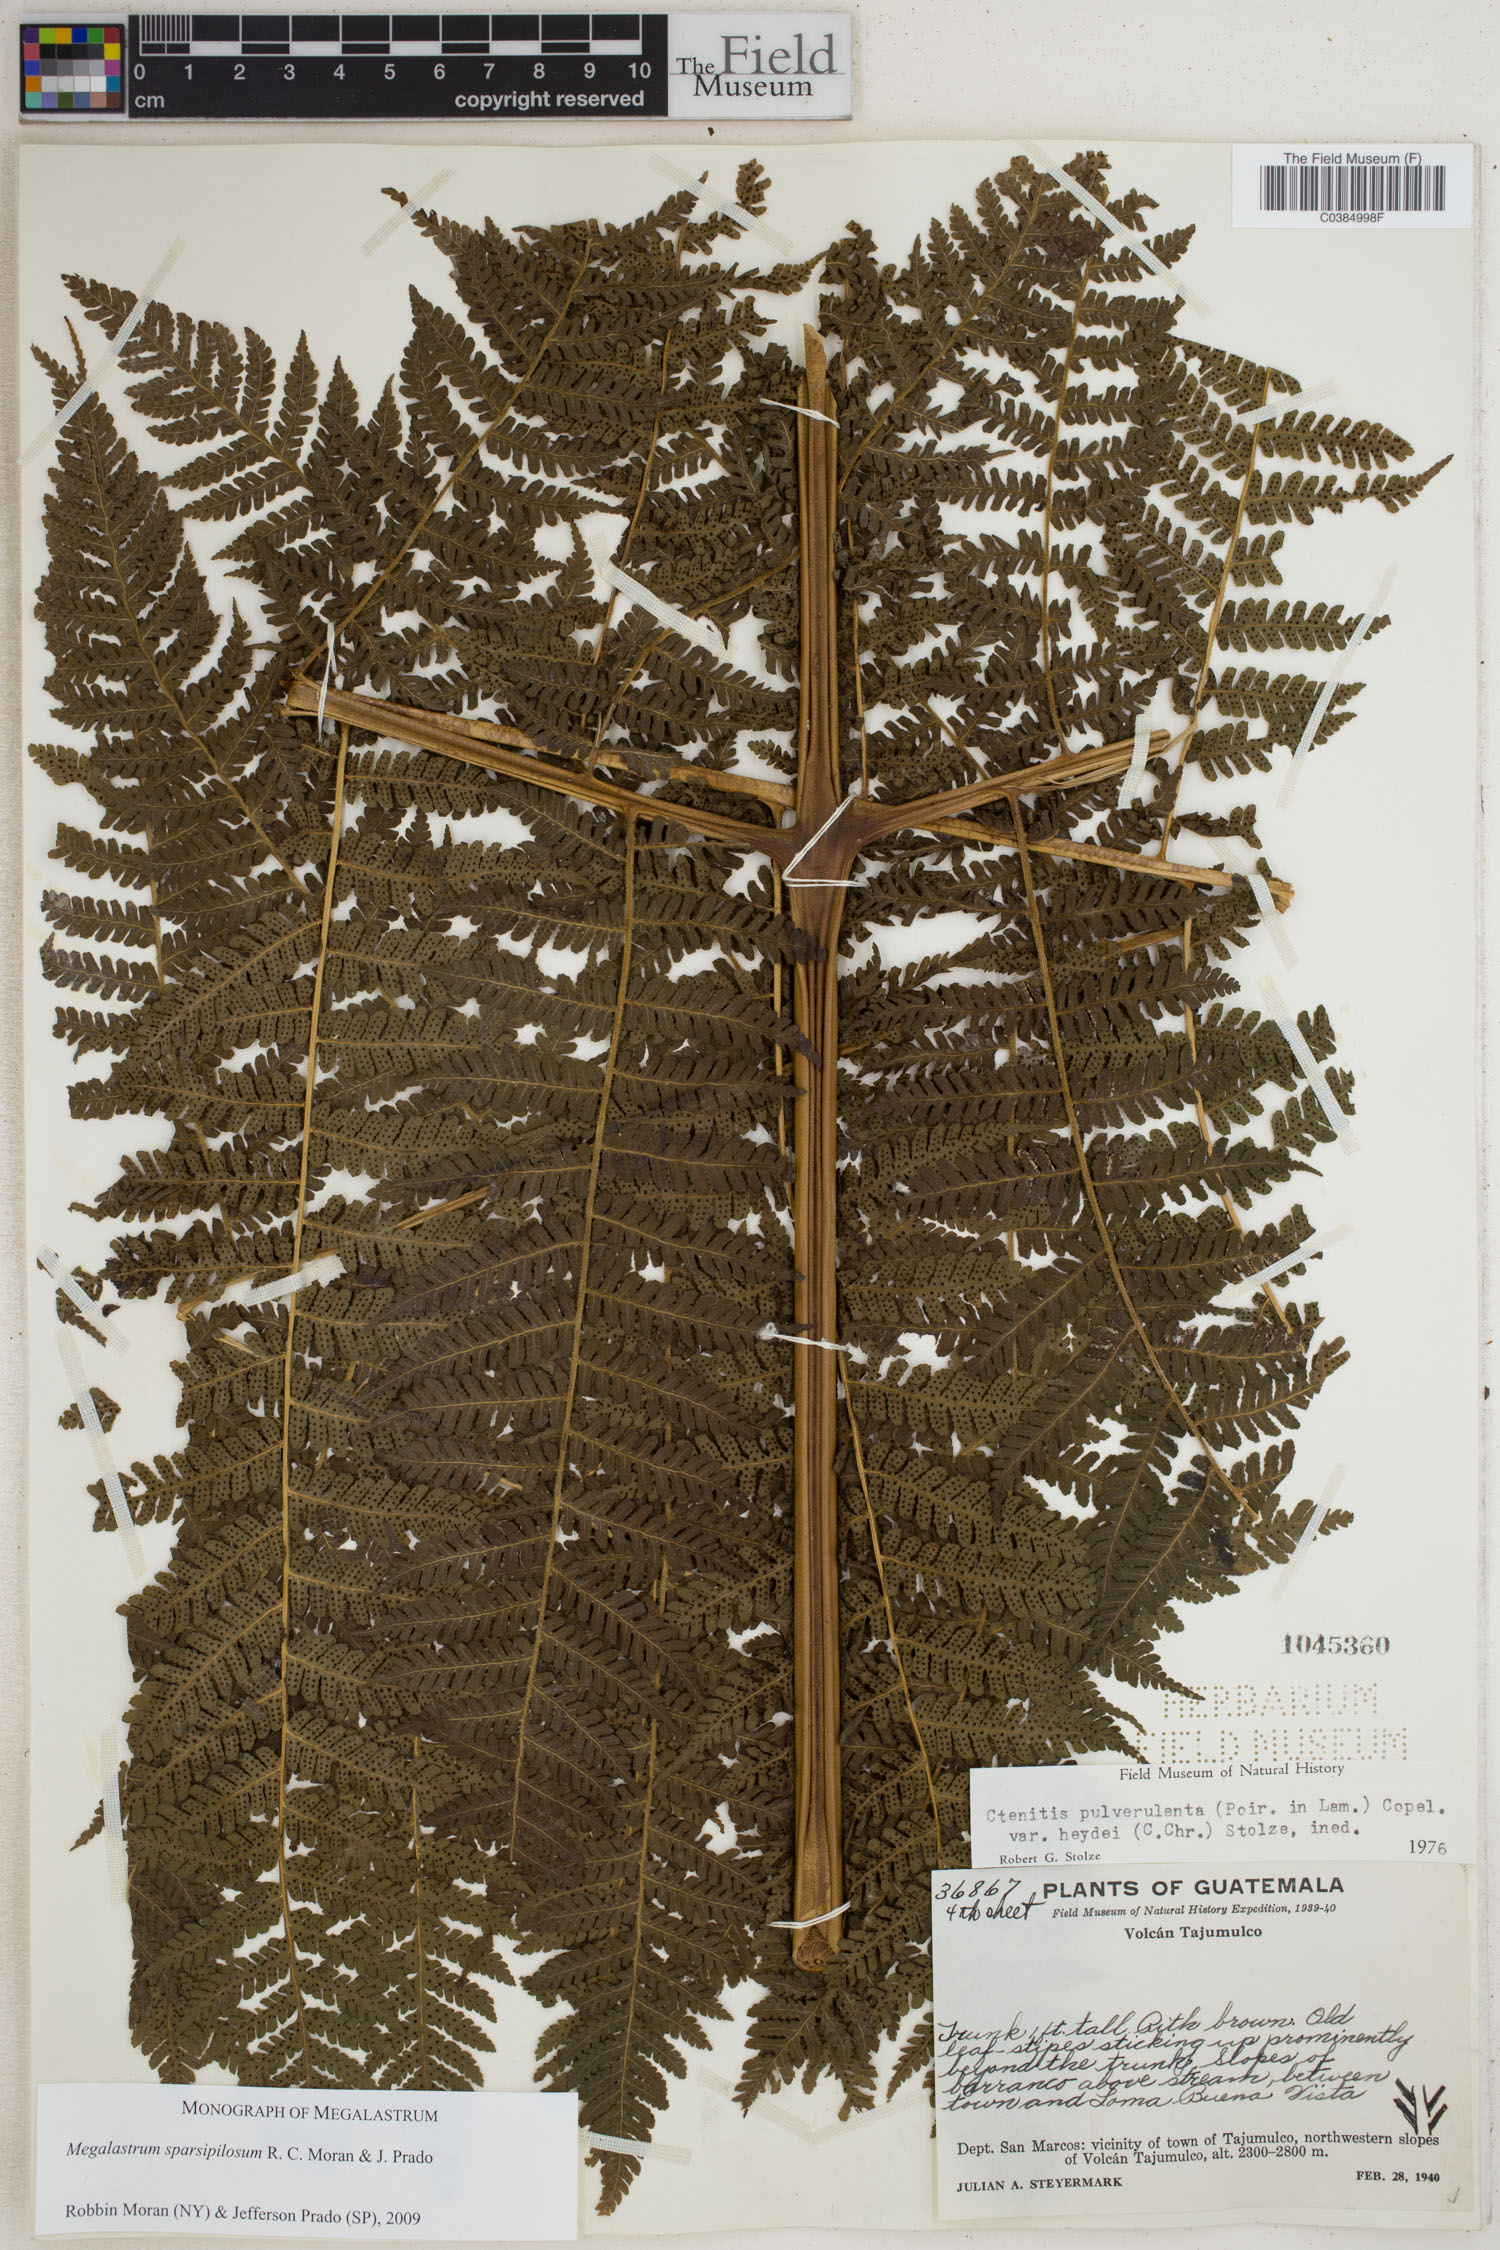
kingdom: Plantae
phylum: Tracheophyta
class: Polypodiopsida
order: Polypodiales
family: Dryopteridaceae
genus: Megalastrum
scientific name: Megalastrum sparsipilosum
